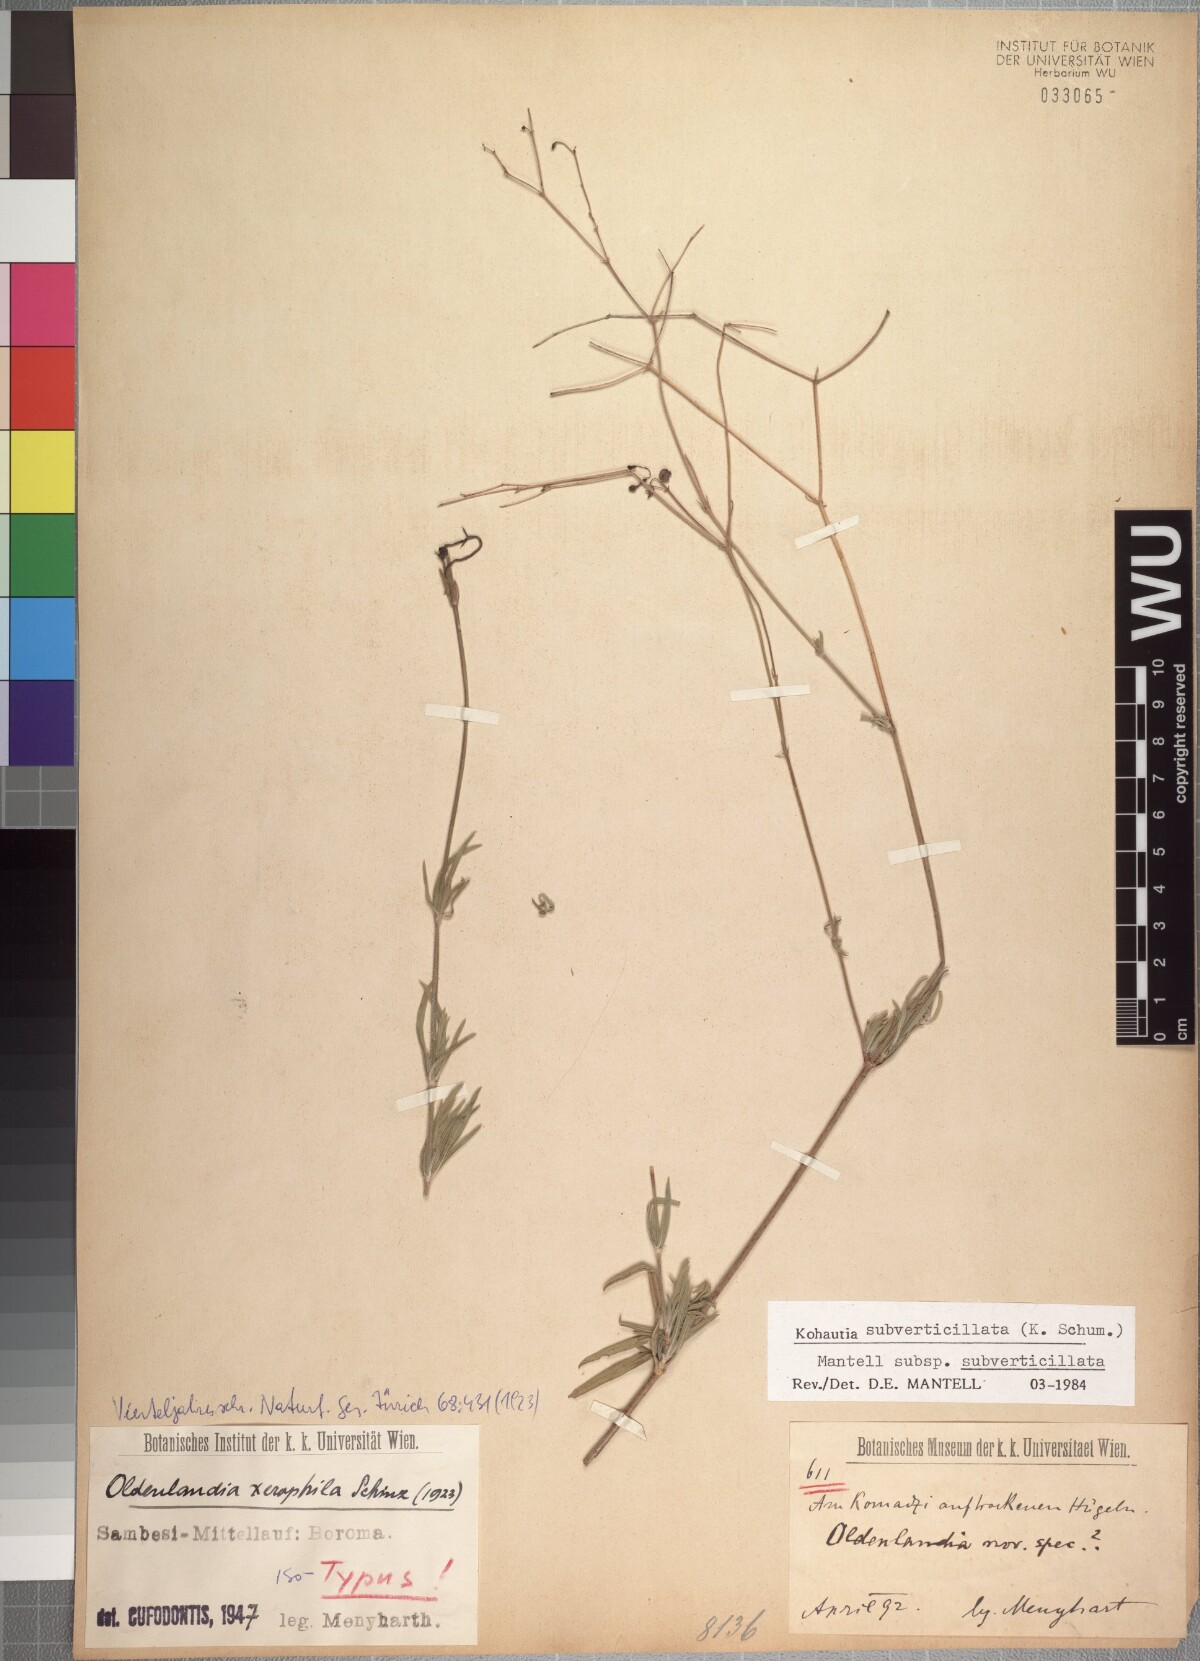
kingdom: Plantae
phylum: Tracheophyta
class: Magnoliopsida
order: Gentianales
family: Rubiaceae
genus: Kohautia
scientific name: Kohautia subverticillata
